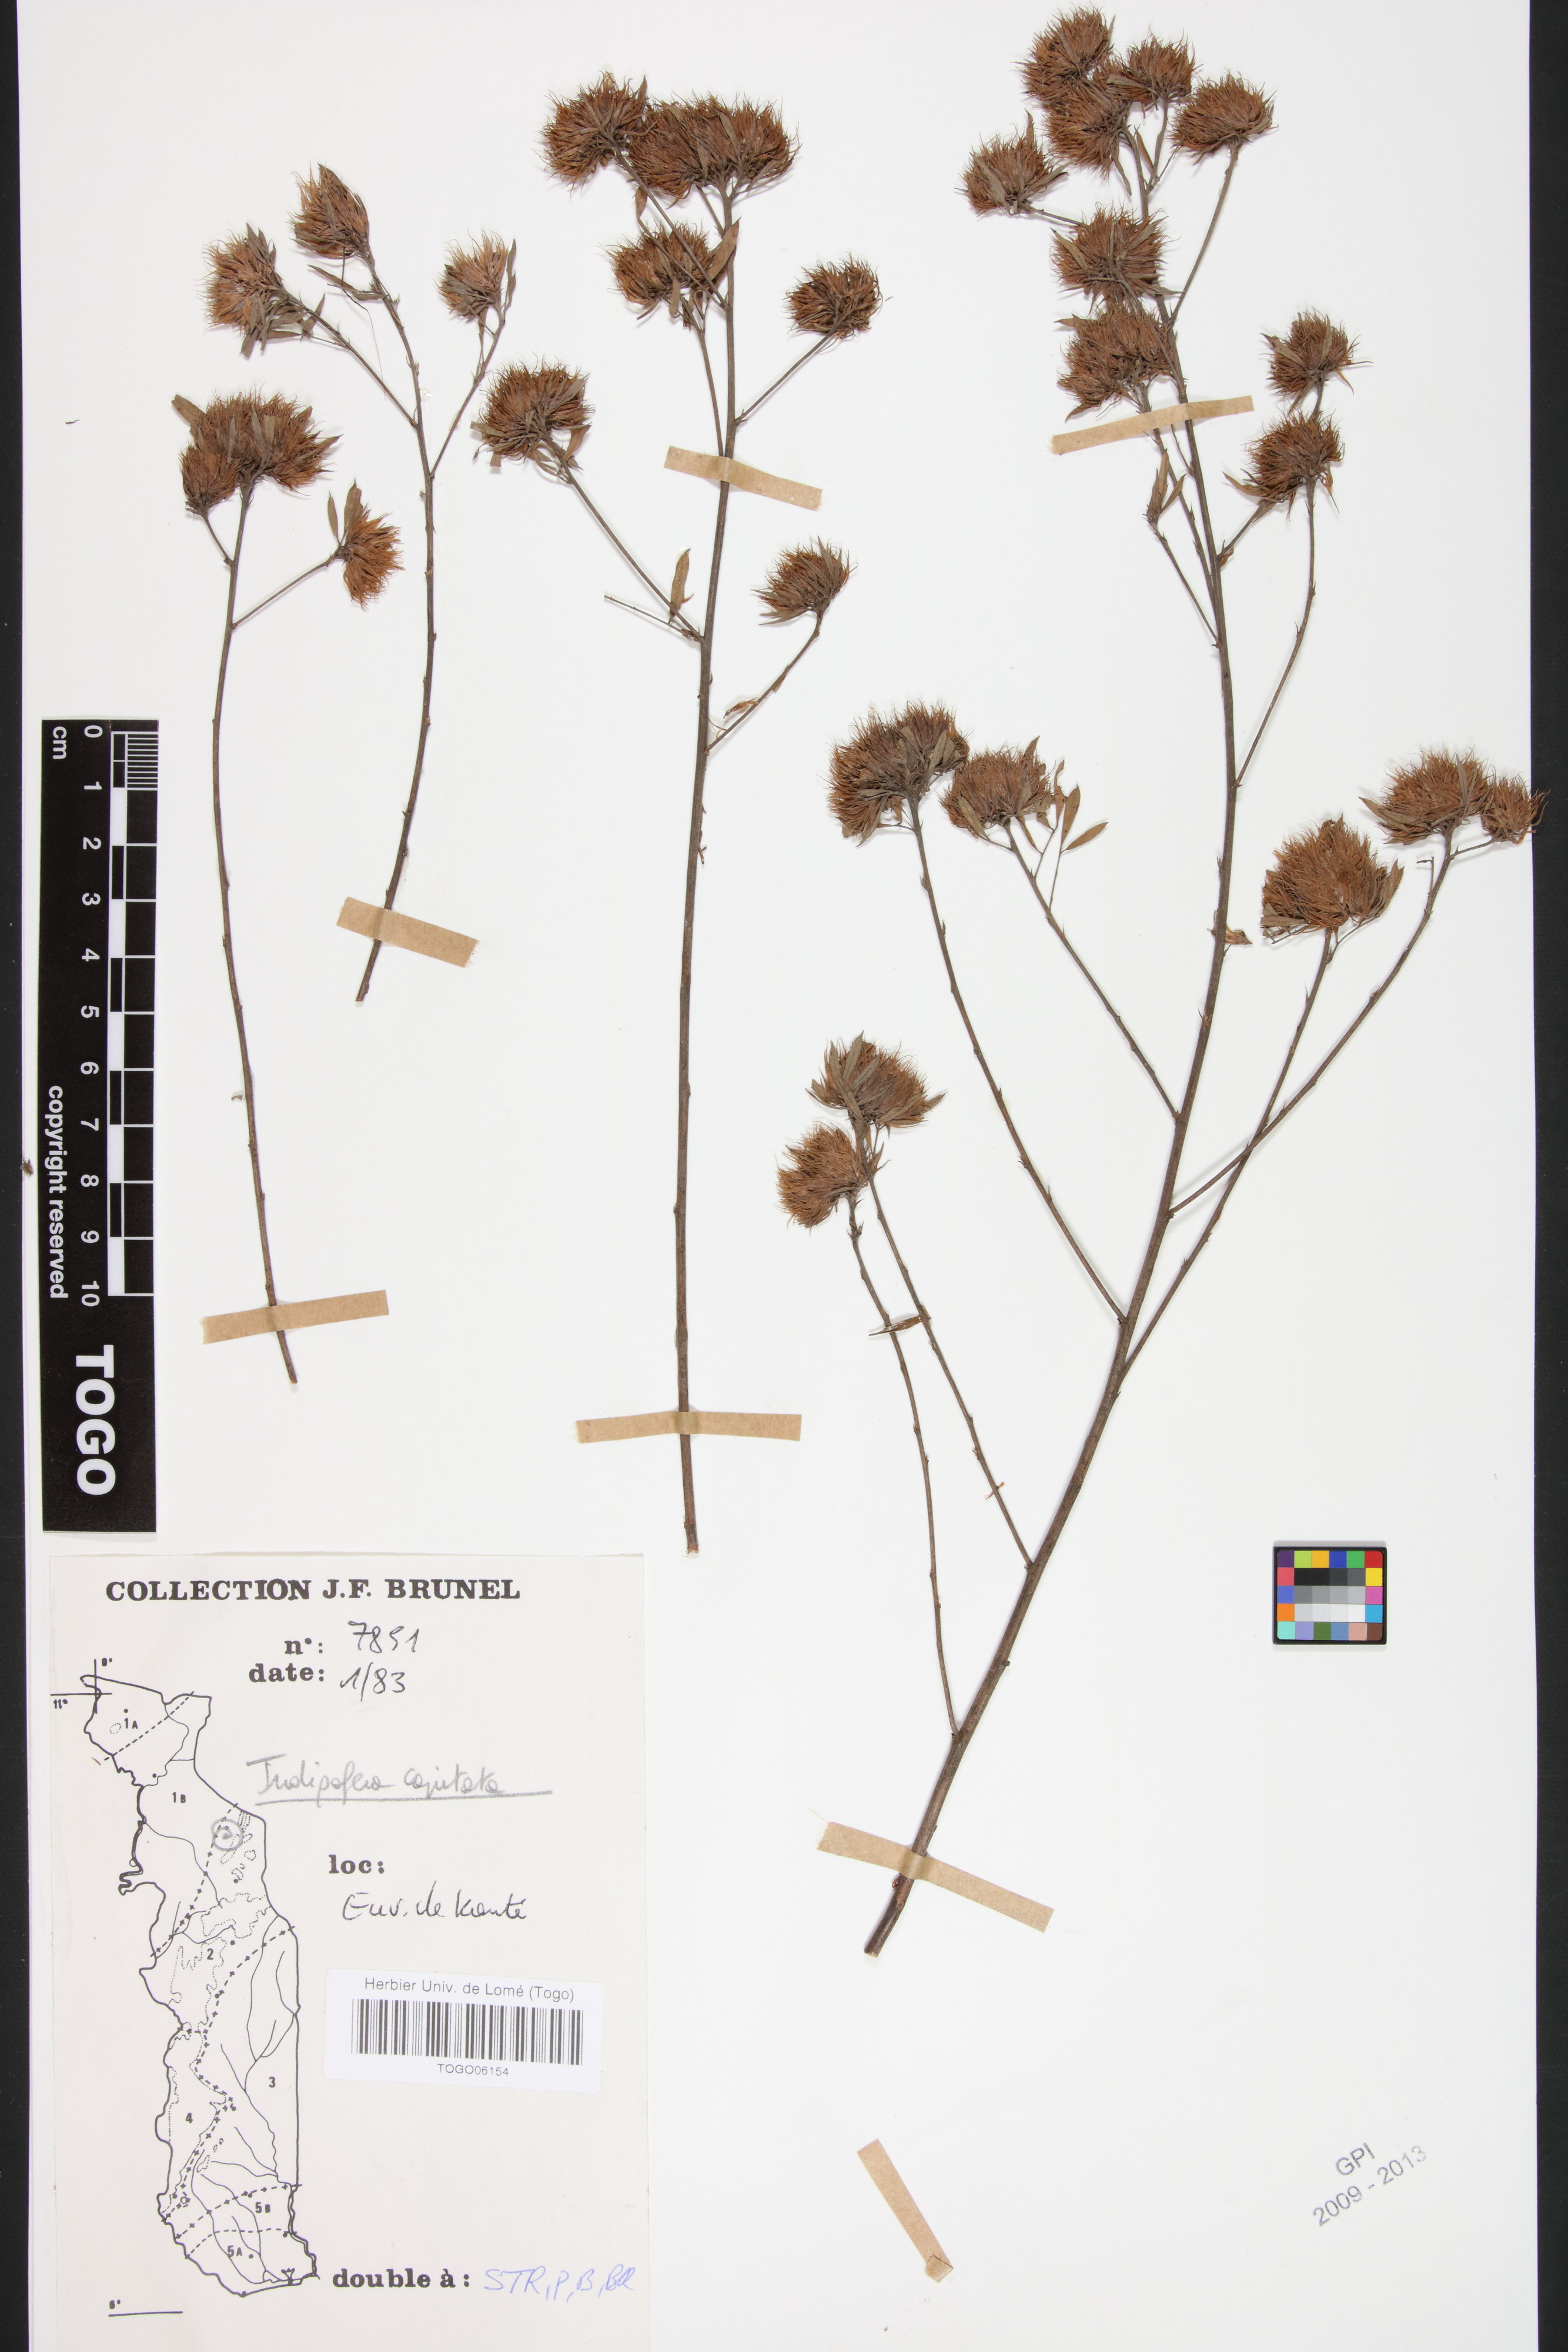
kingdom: Plantae
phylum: Tracheophyta
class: Magnoliopsida
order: Fabales
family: Fabaceae
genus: Indigofera
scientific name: Indigofera capitata
